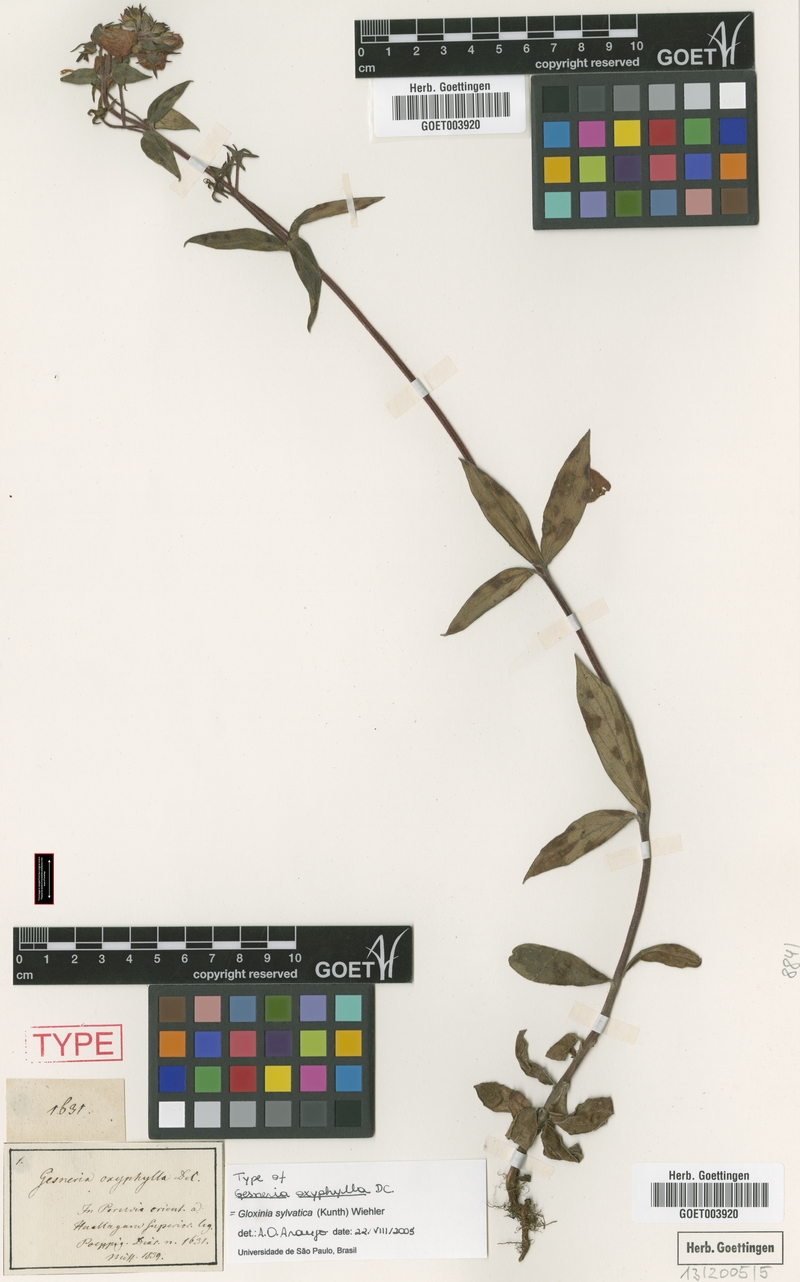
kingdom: Plantae
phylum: Tracheophyta
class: Magnoliopsida
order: Lamiales
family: Gesneriaceae
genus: Seemannia
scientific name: Seemannia sylvatica
